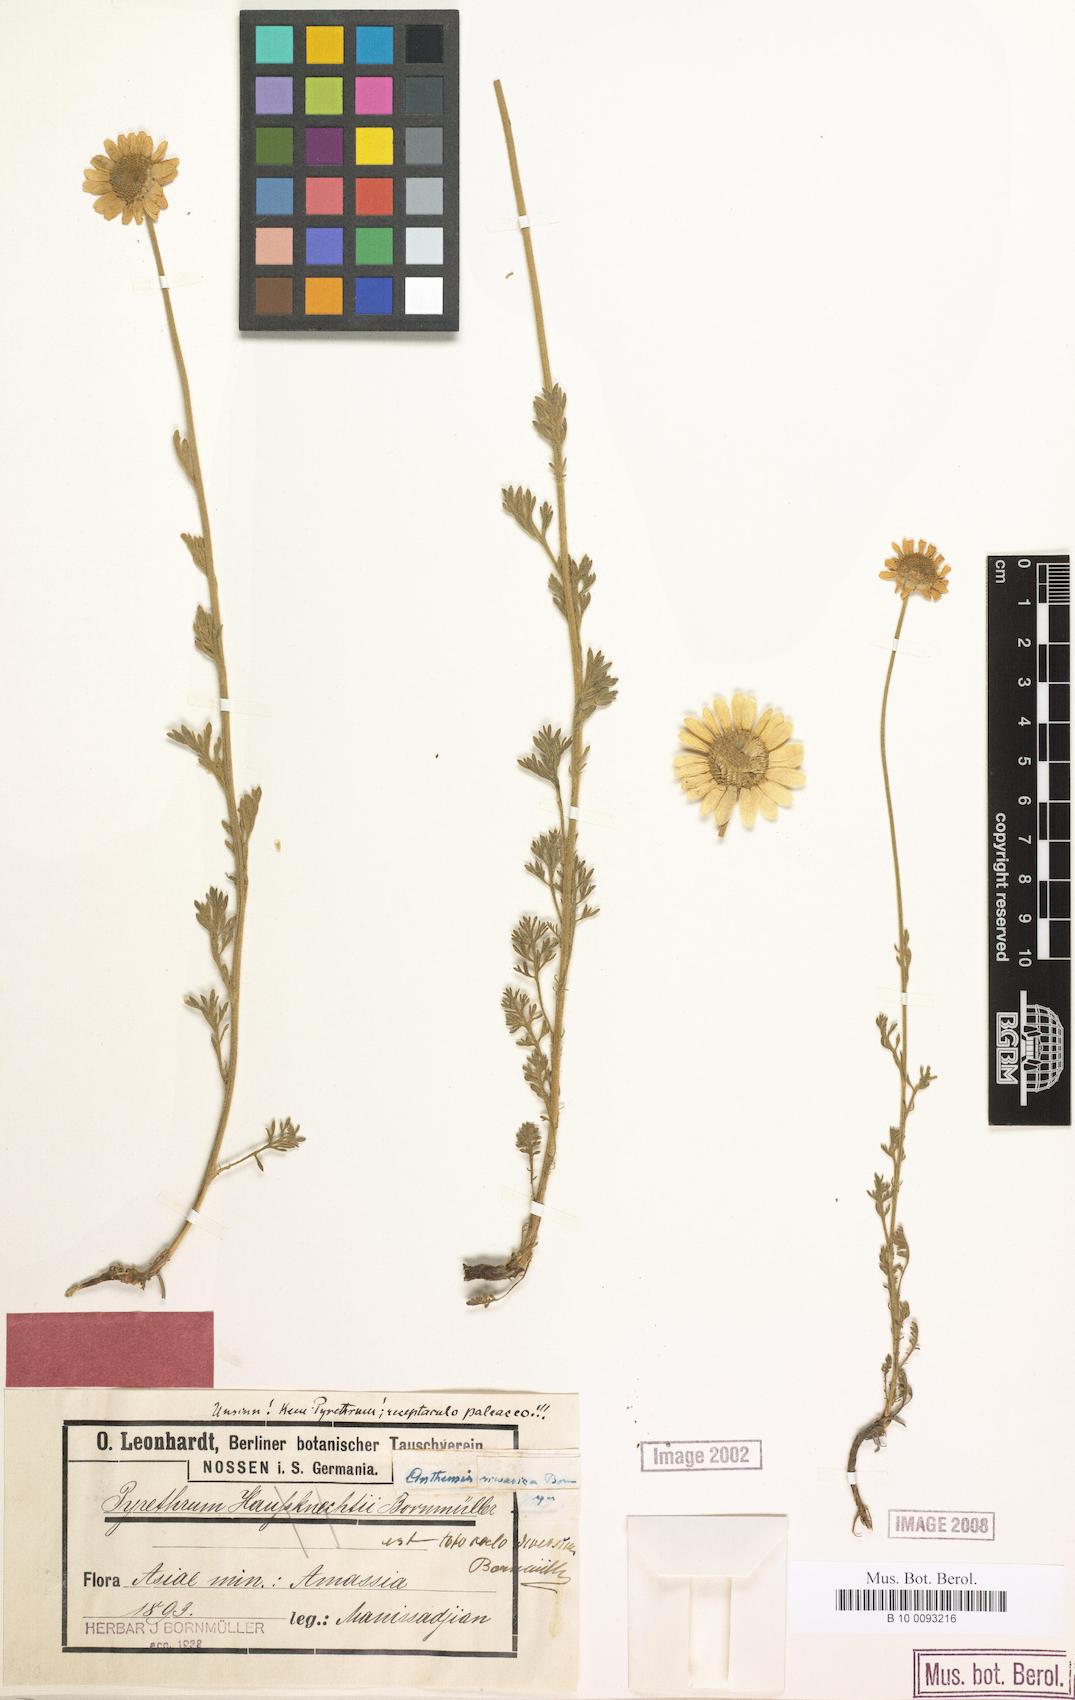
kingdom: Plantae
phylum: Tracheophyta
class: Magnoliopsida
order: Asterales
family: Asteraceae
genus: Anthemis
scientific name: Anthemis cretica
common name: Mountain dog-daisy
